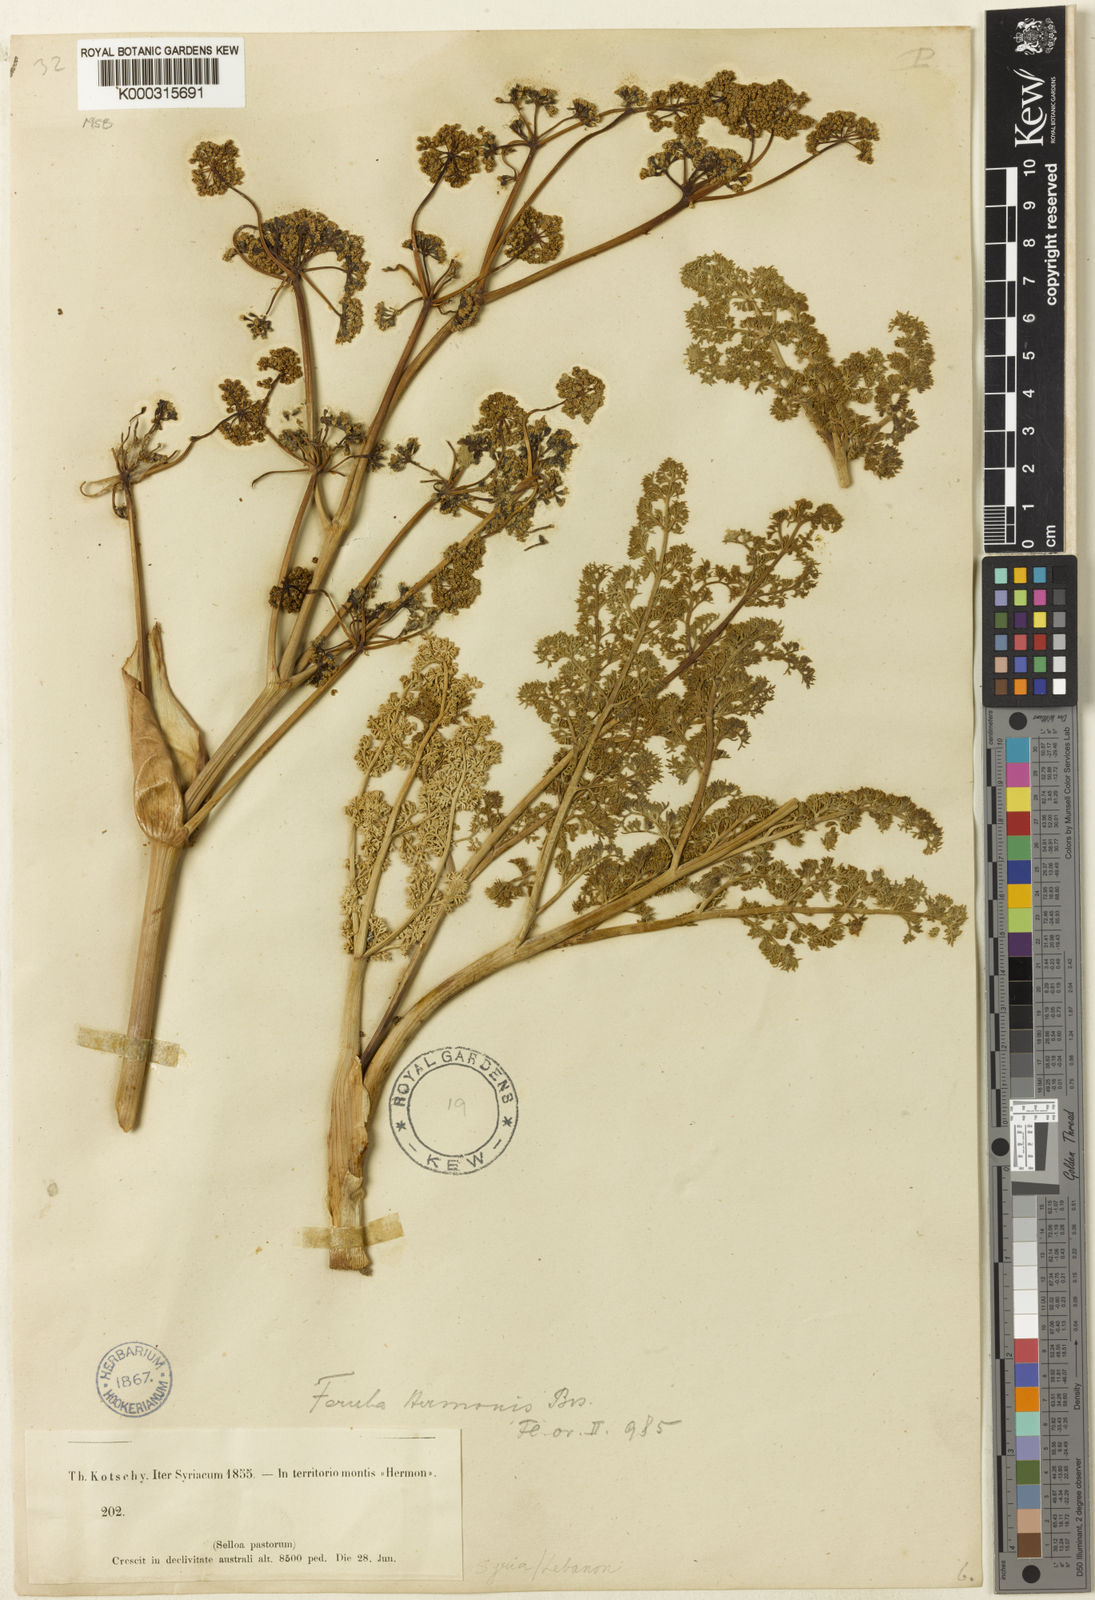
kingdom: Plantae
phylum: Tracheophyta
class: Magnoliopsida
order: Apiales
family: Apiaceae
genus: Ferula
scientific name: Ferula hermonis
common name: Hermon giant fennel
